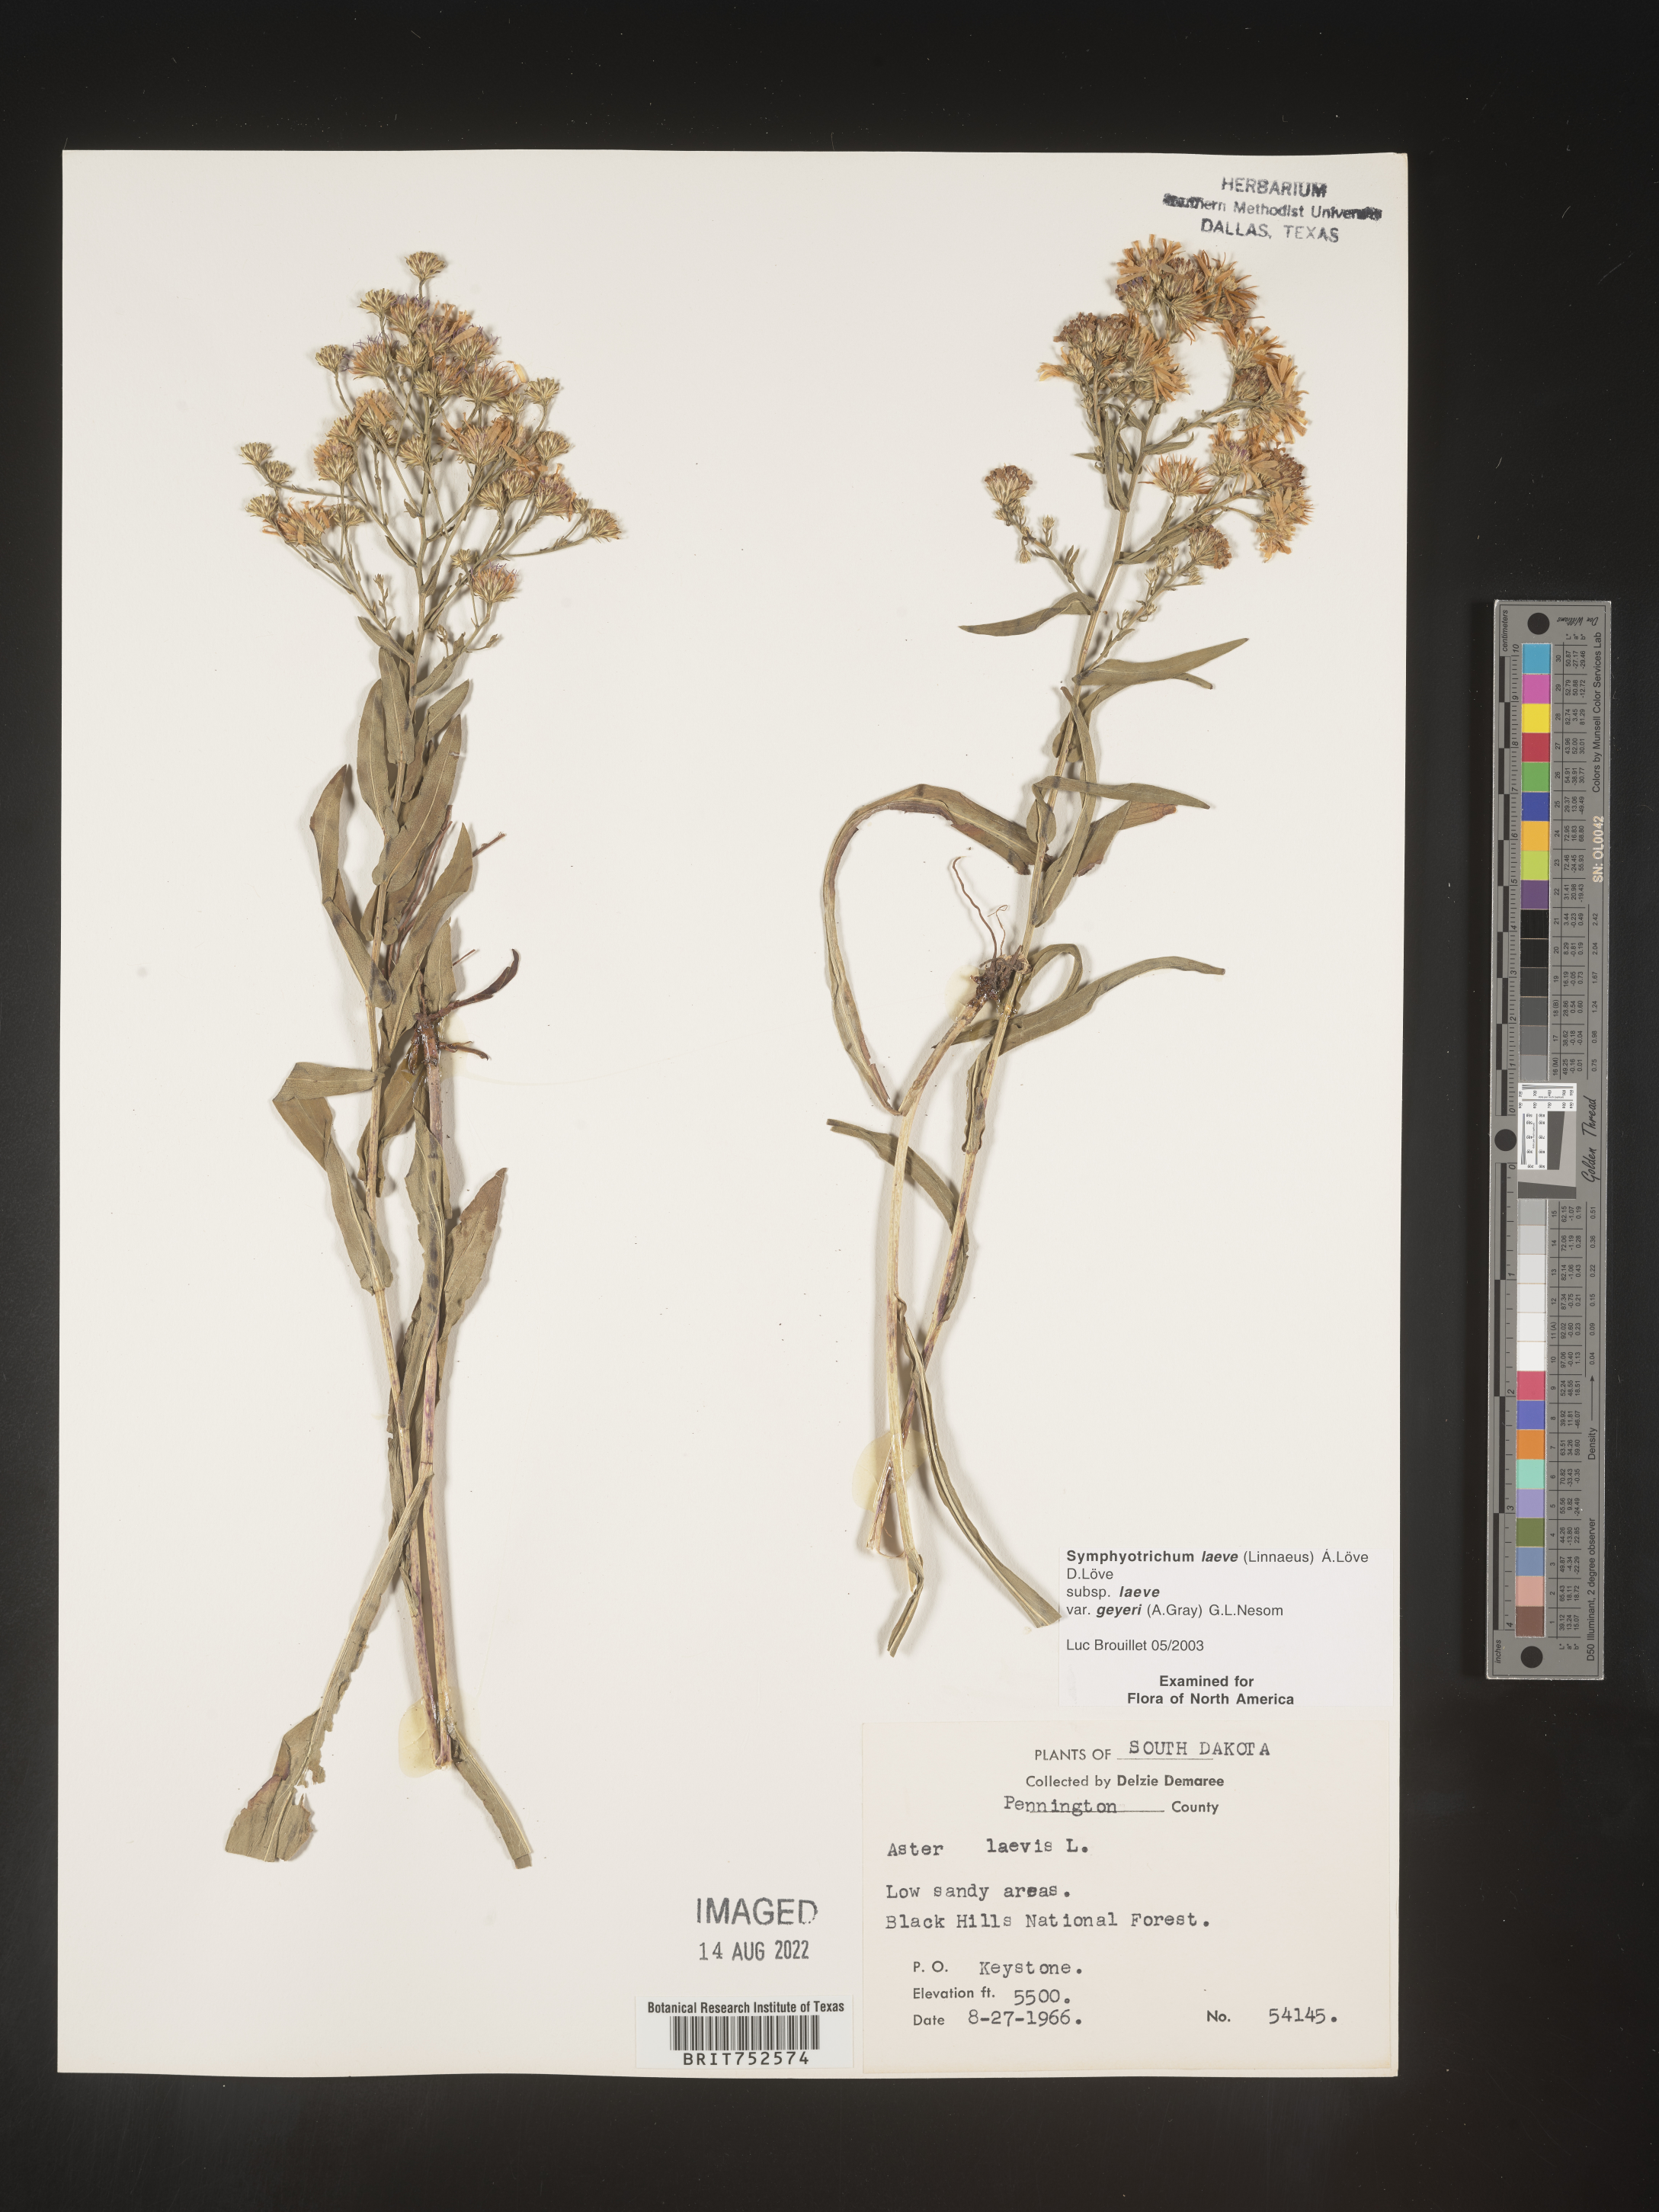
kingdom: Plantae
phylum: Tracheophyta
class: Magnoliopsida
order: Asterales
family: Asteraceae
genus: Symphyotrichum
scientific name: Symphyotrichum laeve
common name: Glaucous aster
